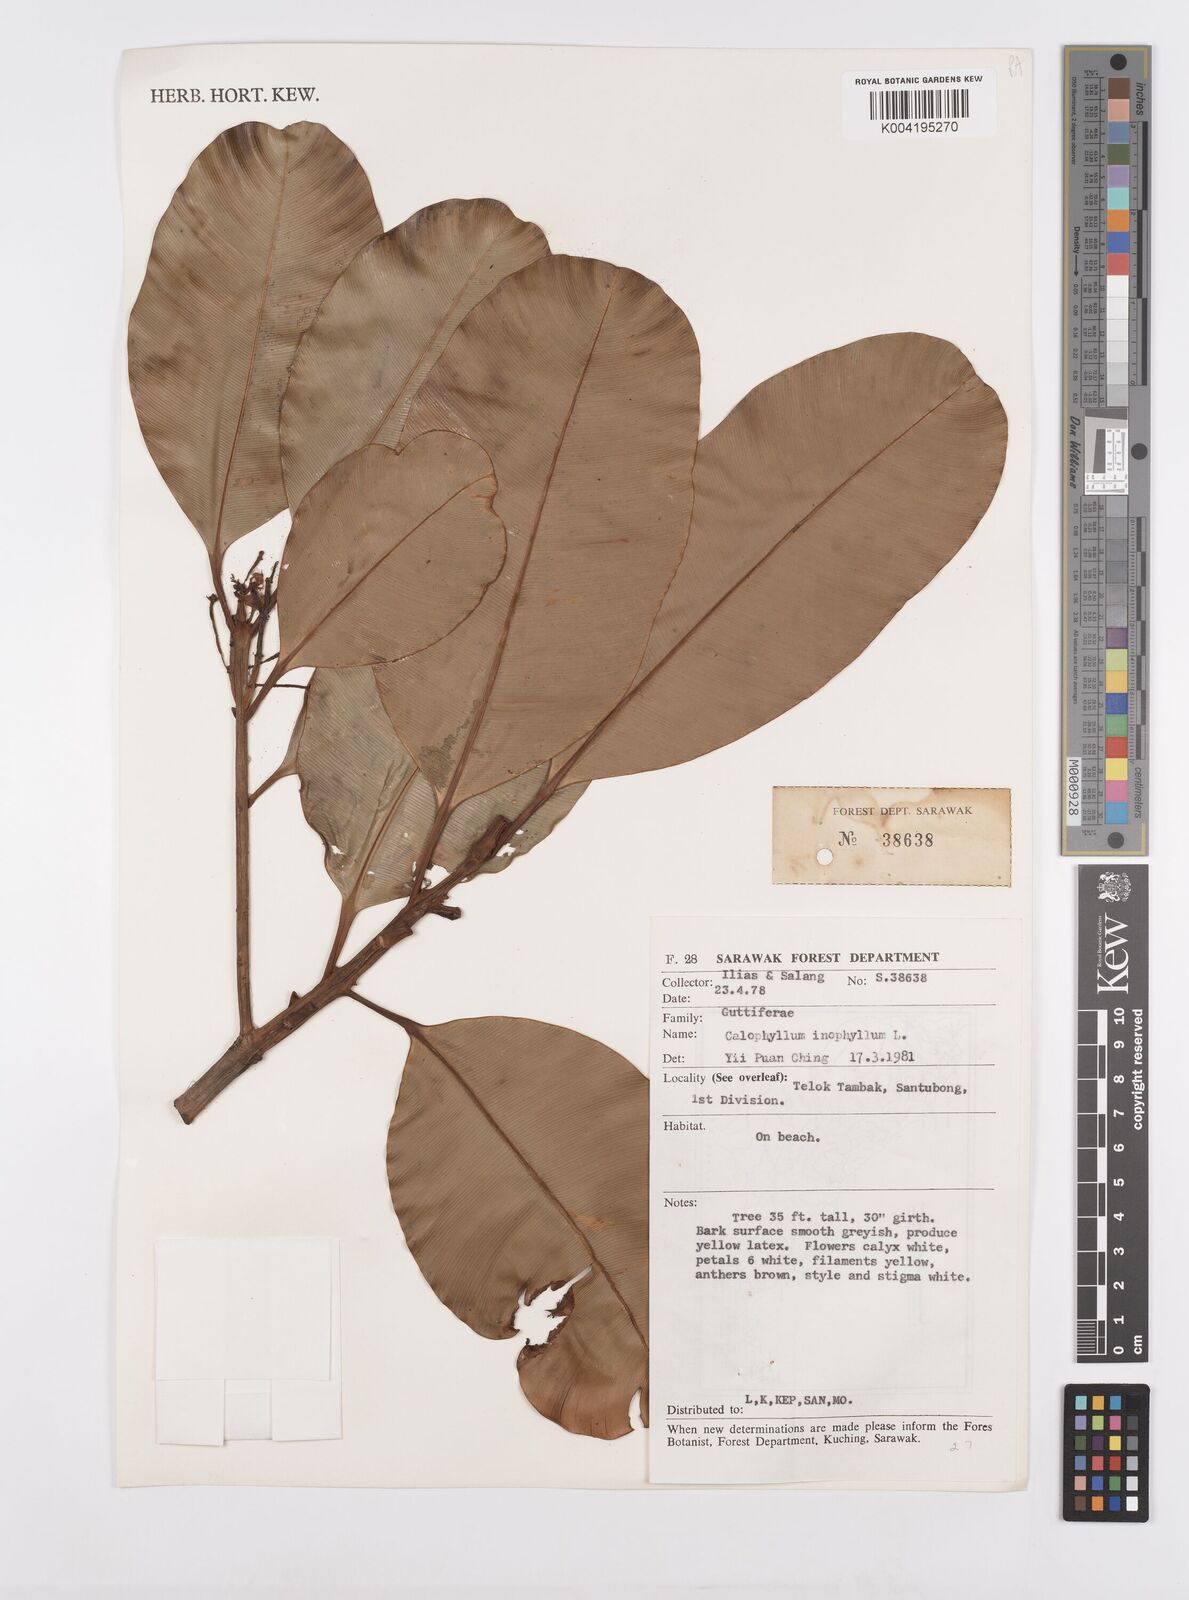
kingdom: Plantae
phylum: Tracheophyta
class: Magnoliopsida
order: Malpighiales
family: Calophyllaceae
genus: Calophyllum
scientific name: Calophyllum inophyllum
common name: Alexandrian laurel
